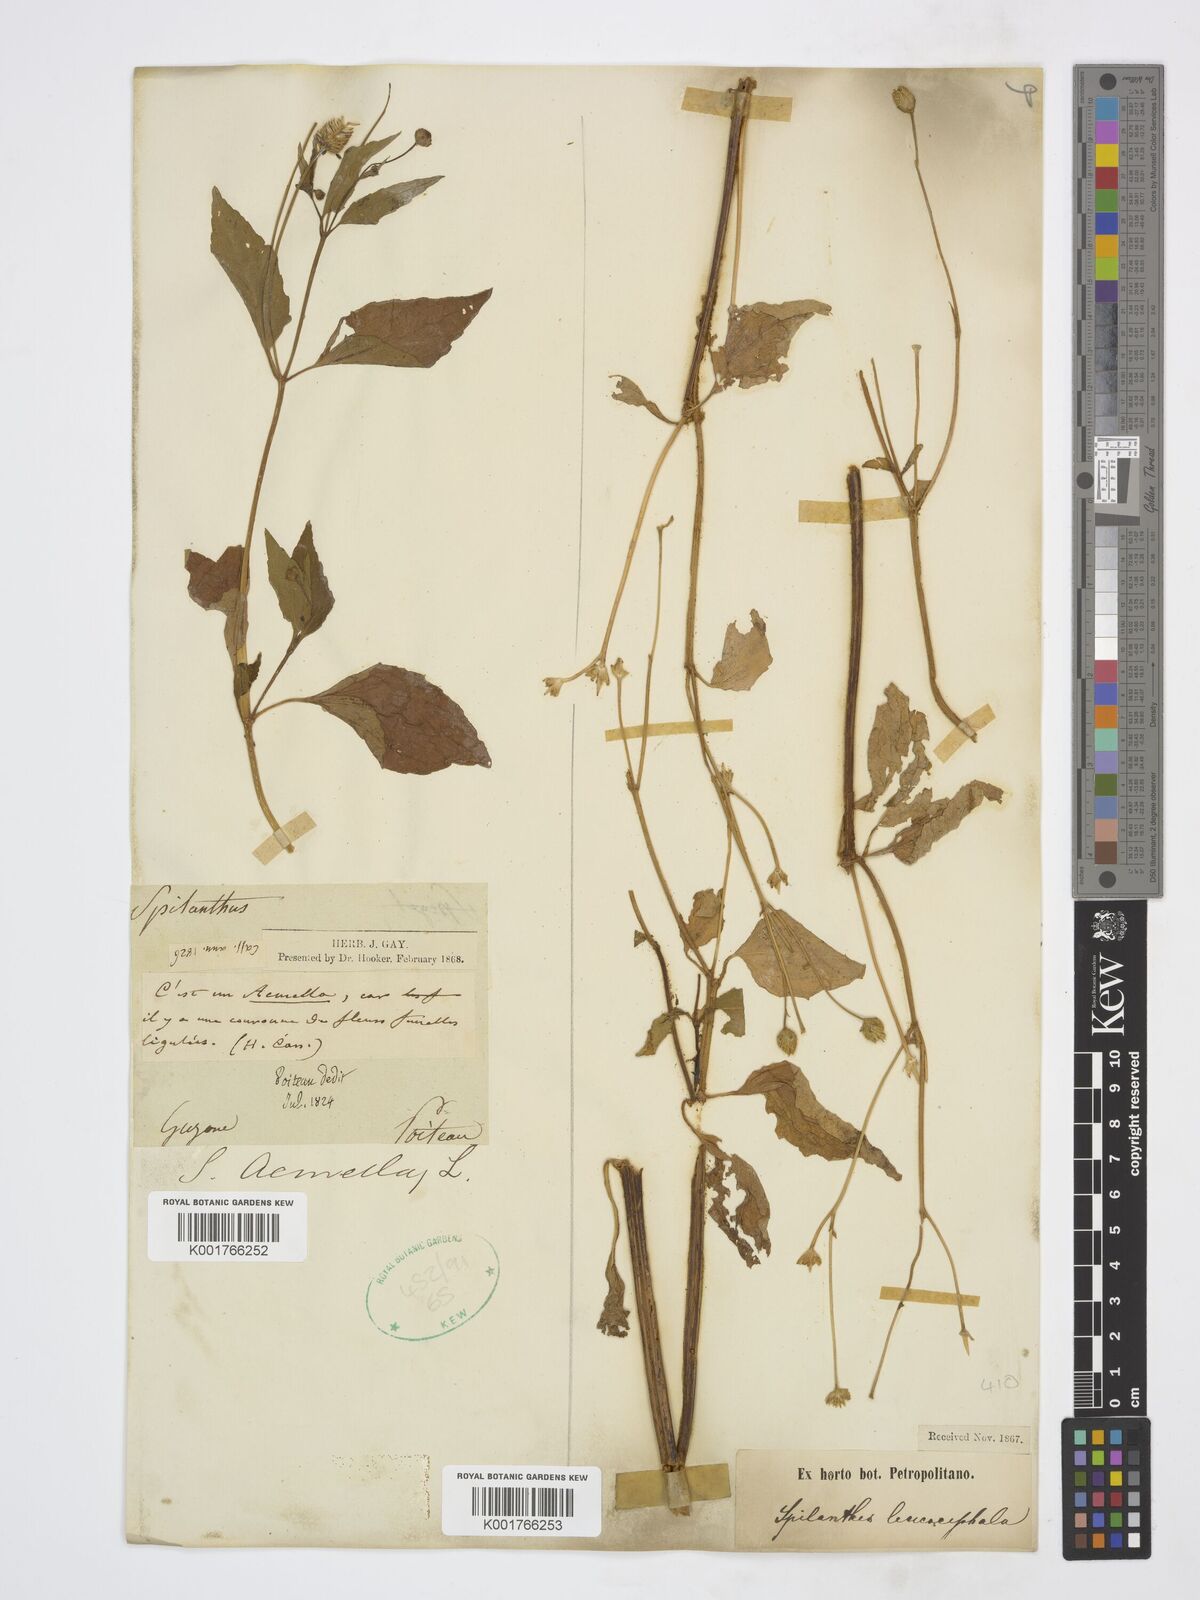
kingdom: Plantae
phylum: Tracheophyta
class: Magnoliopsida
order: Asterales
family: Asteraceae
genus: Acmella
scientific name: Acmella brachyglossa
